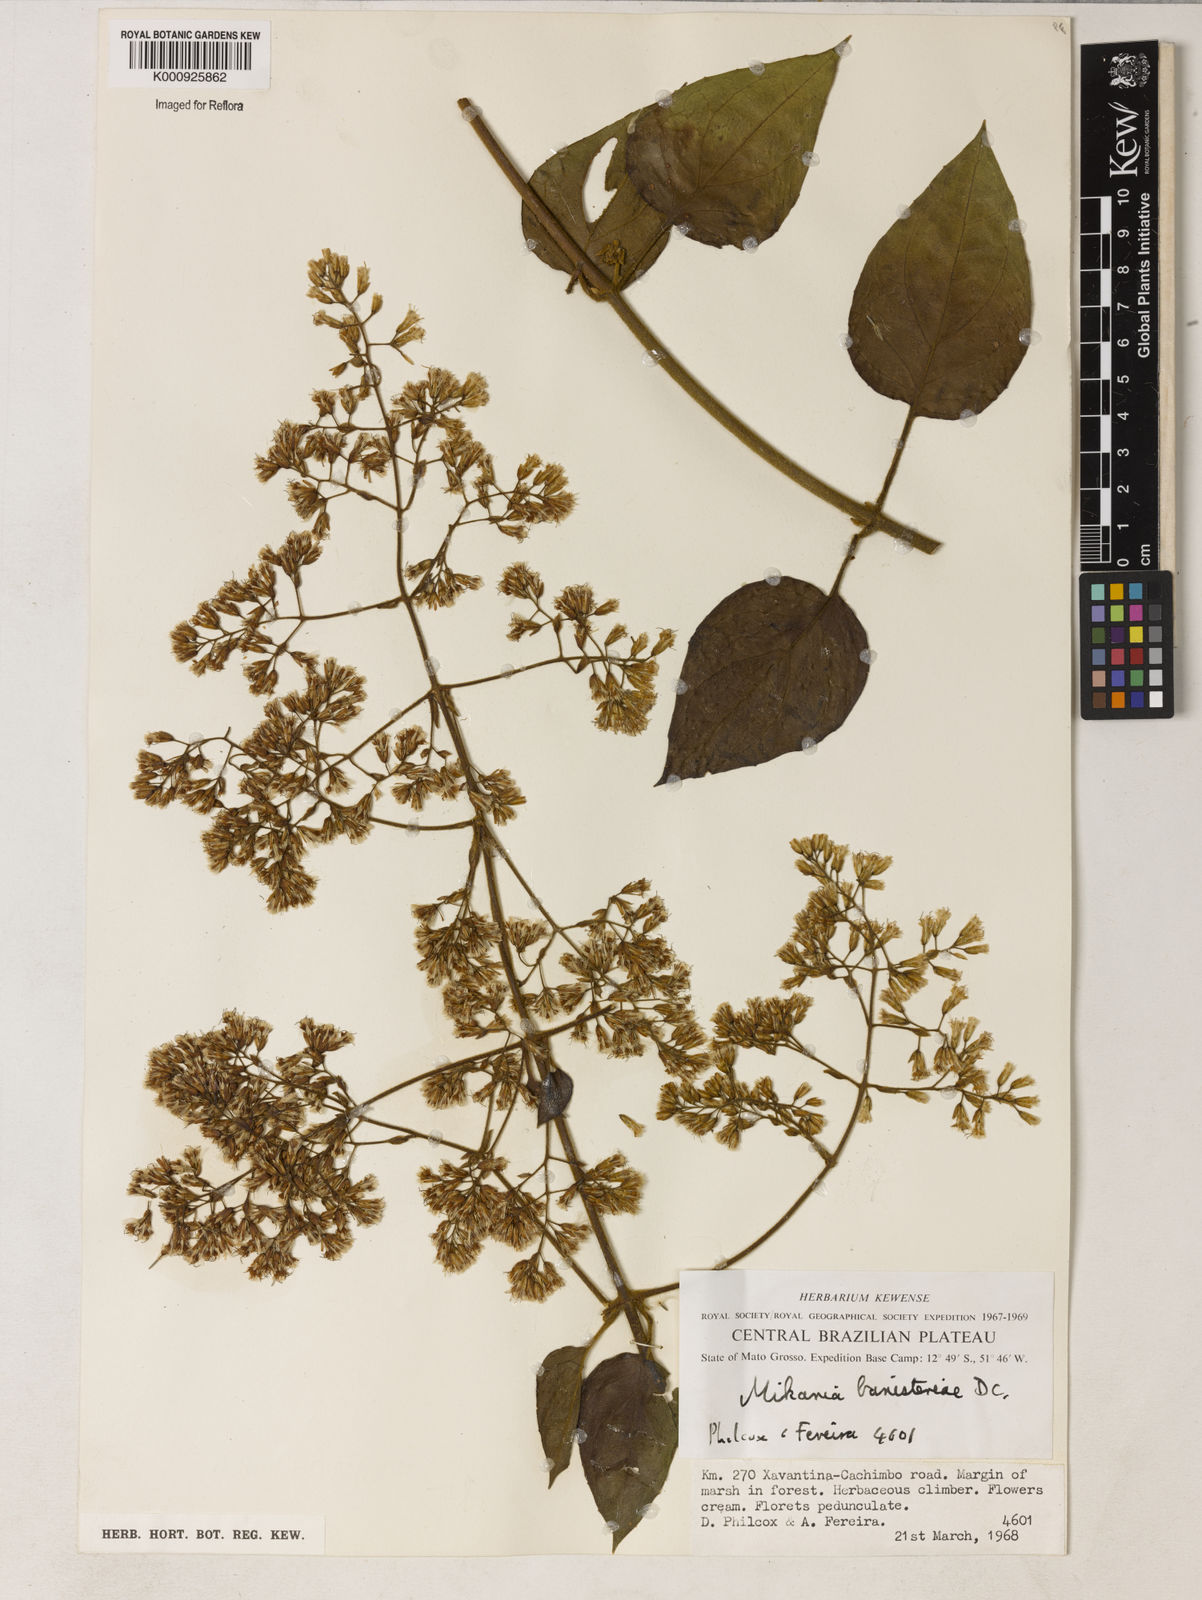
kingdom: Plantae
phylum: Tracheophyta
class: Magnoliopsida
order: Asterales
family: Asteraceae
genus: Mikania
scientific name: Mikania banisteriae
